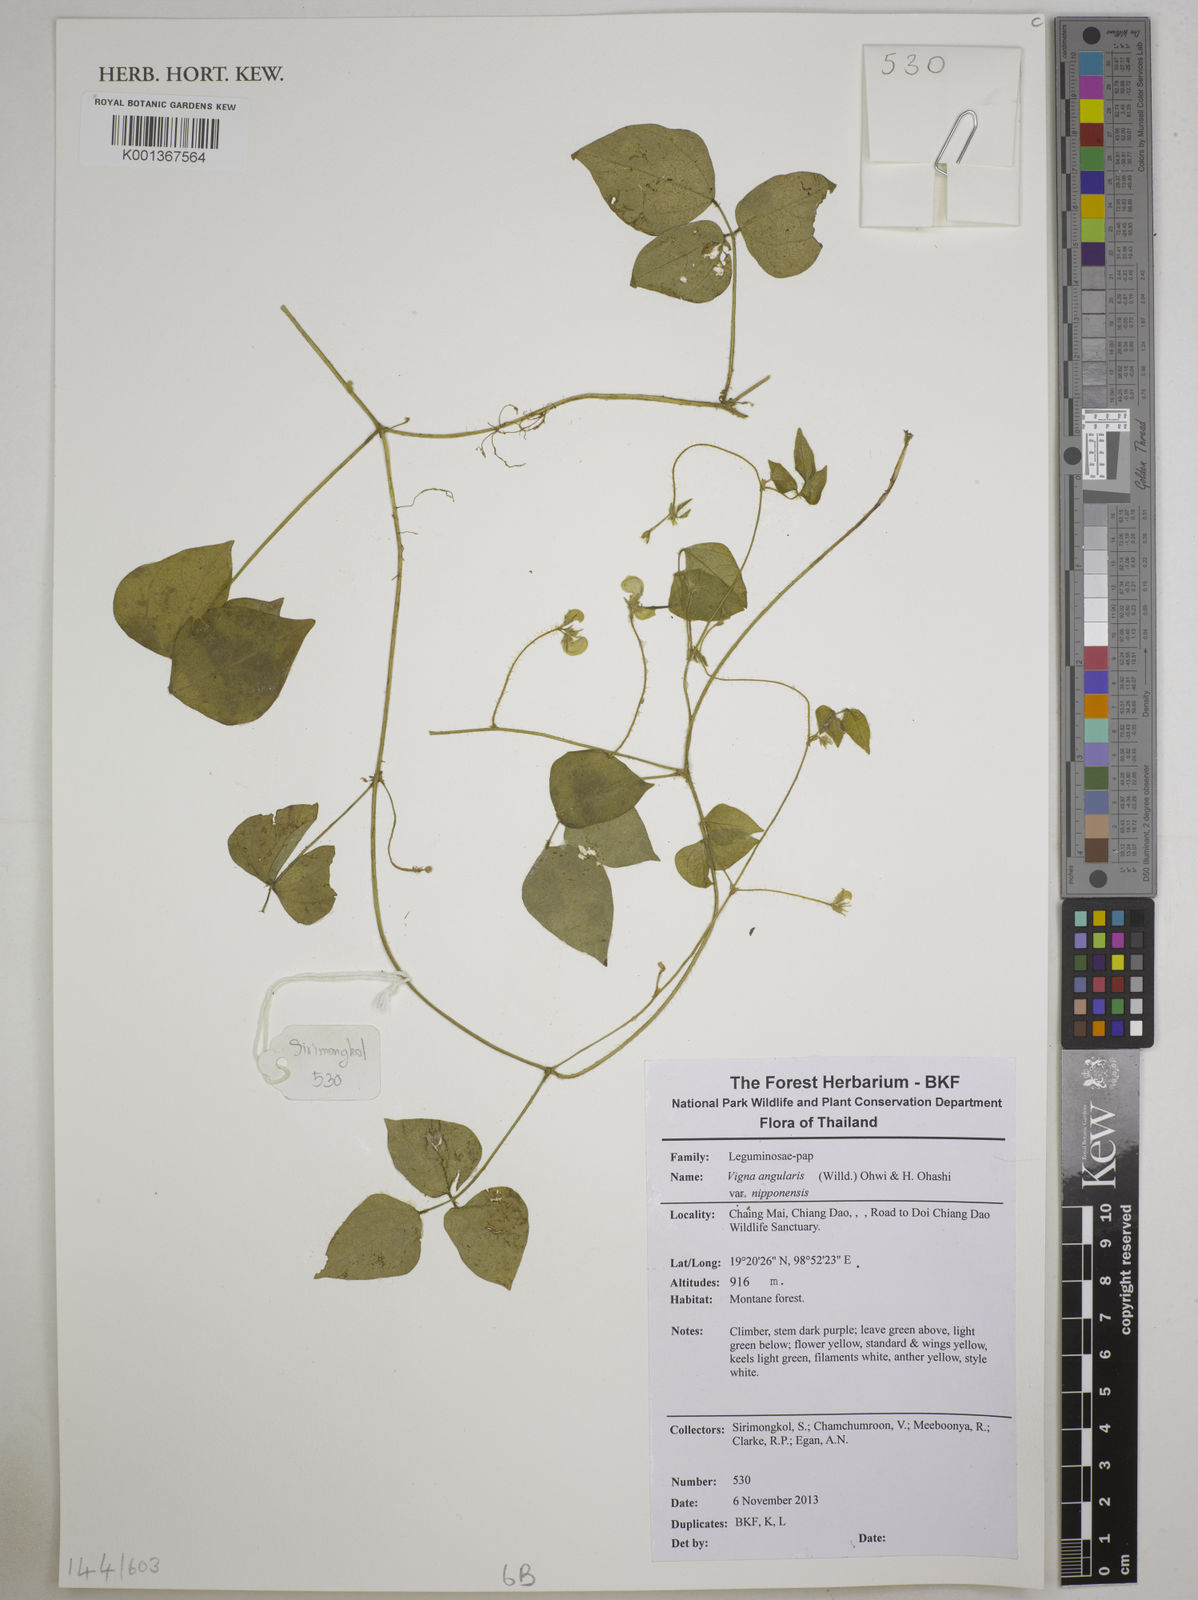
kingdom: Plantae
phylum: Tracheophyta
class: Magnoliopsida
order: Fabales
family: Fabaceae
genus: Vigna
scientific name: Vigna
